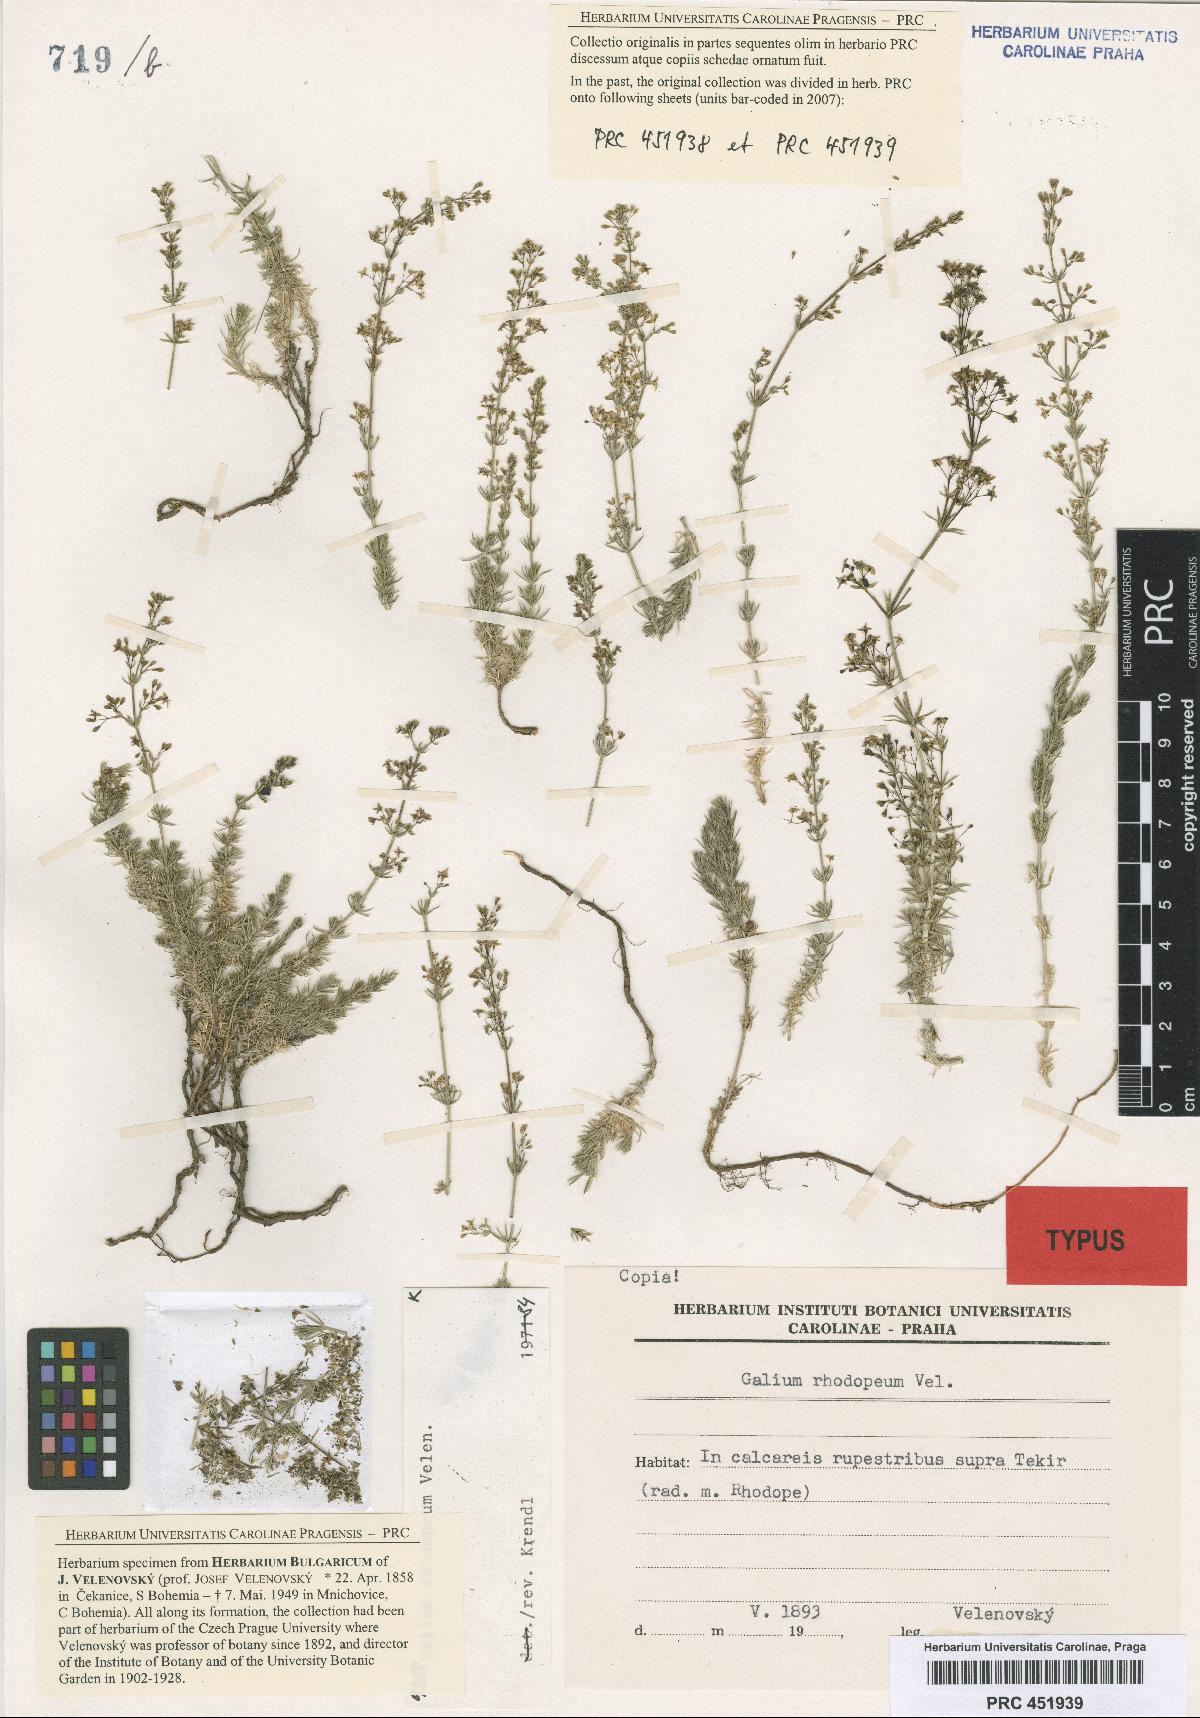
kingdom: Plantae
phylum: Tracheophyta
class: Magnoliopsida
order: Gentianales
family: Rubiaceae
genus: Galium
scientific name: Galium rhodopeum
